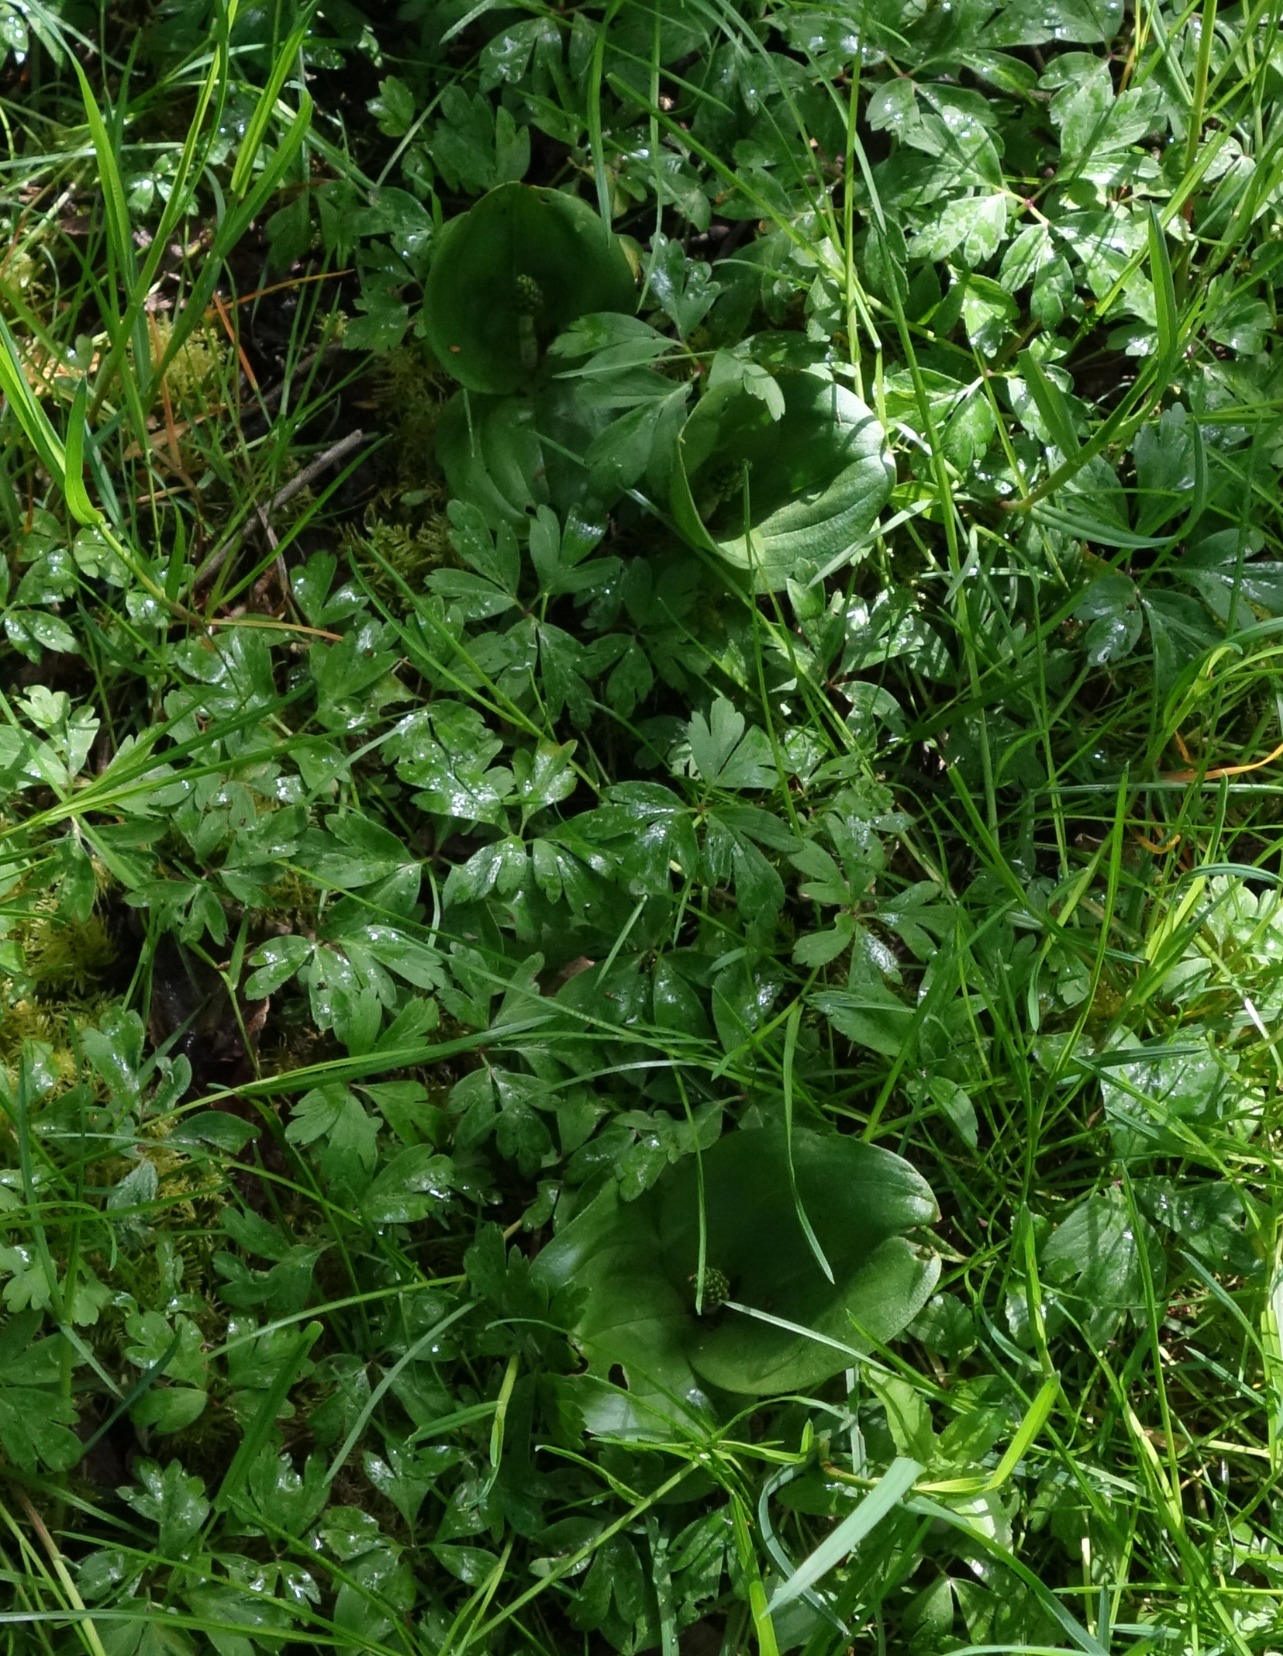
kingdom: Plantae
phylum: Tracheophyta
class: Liliopsida
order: Asparagales
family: Orchidaceae
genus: Neottia
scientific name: Neottia ovata
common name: Ægbladet fliglæbe
